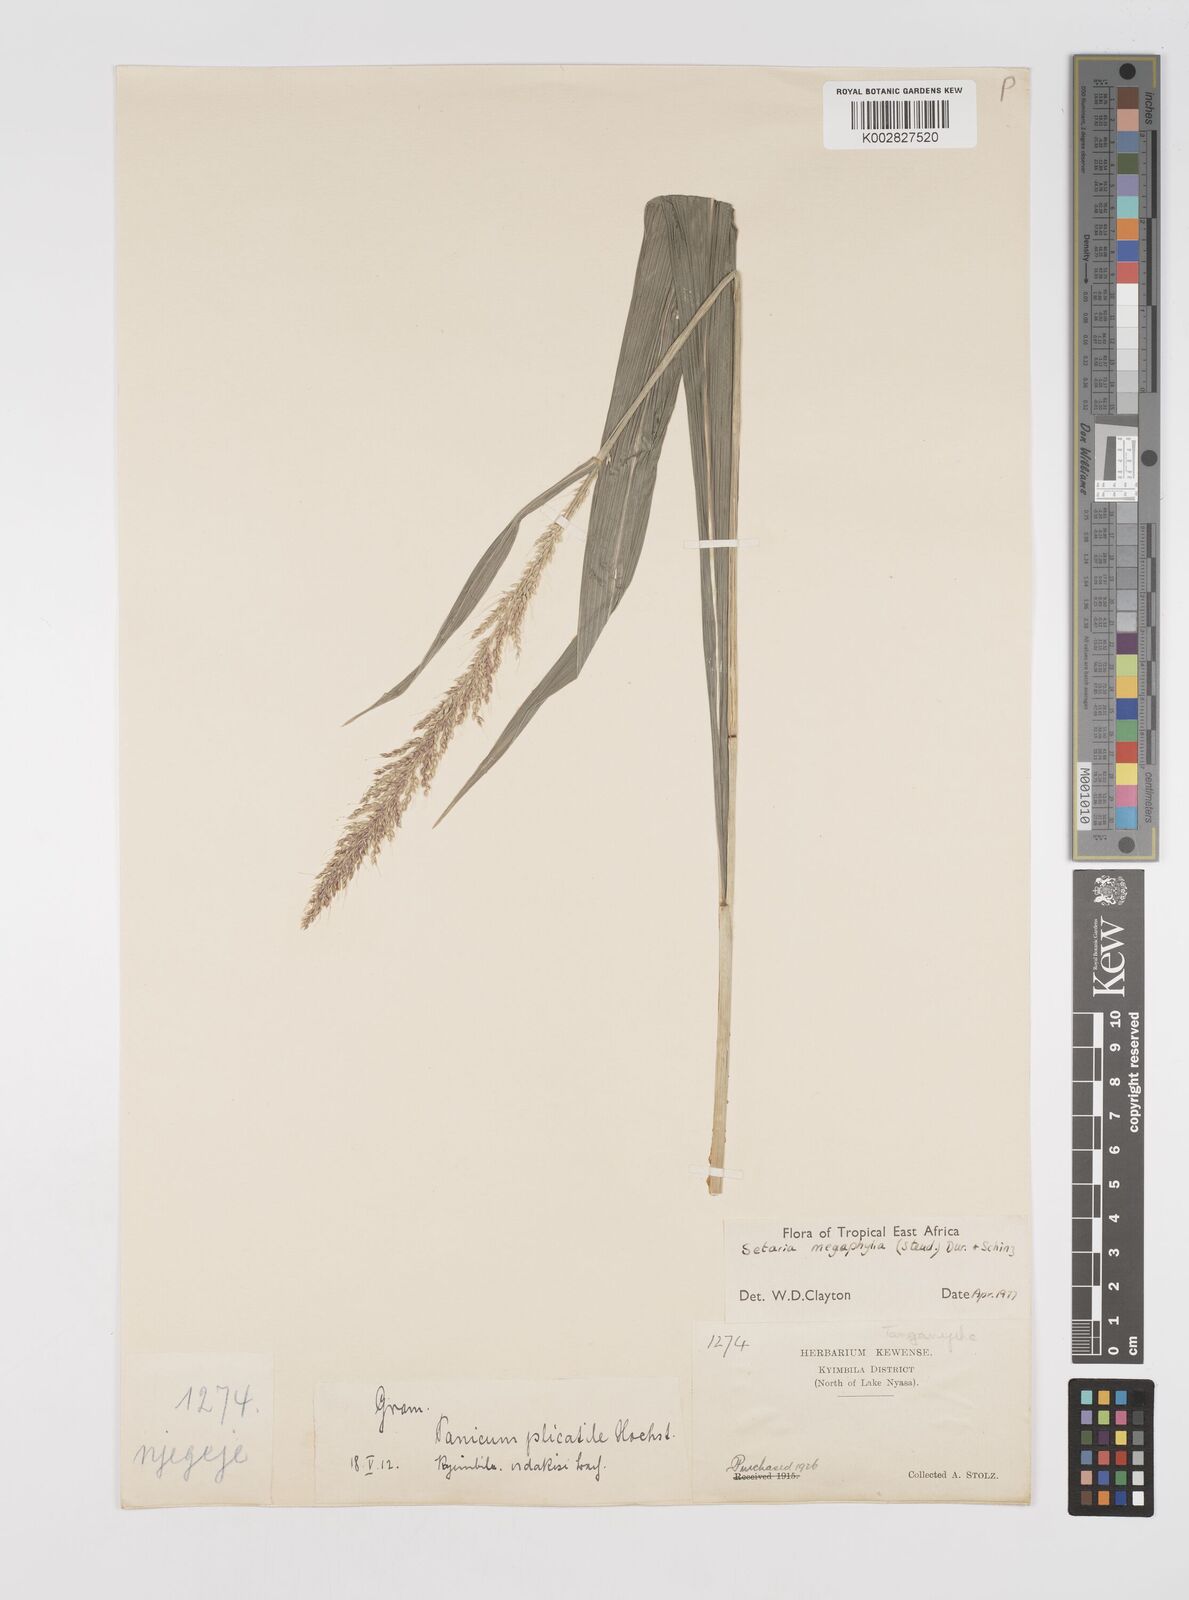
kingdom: Plantae
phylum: Tracheophyta
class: Liliopsida
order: Poales
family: Poaceae
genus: Setaria
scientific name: Setaria megaphylla
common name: Bigleaf bristlegrass
